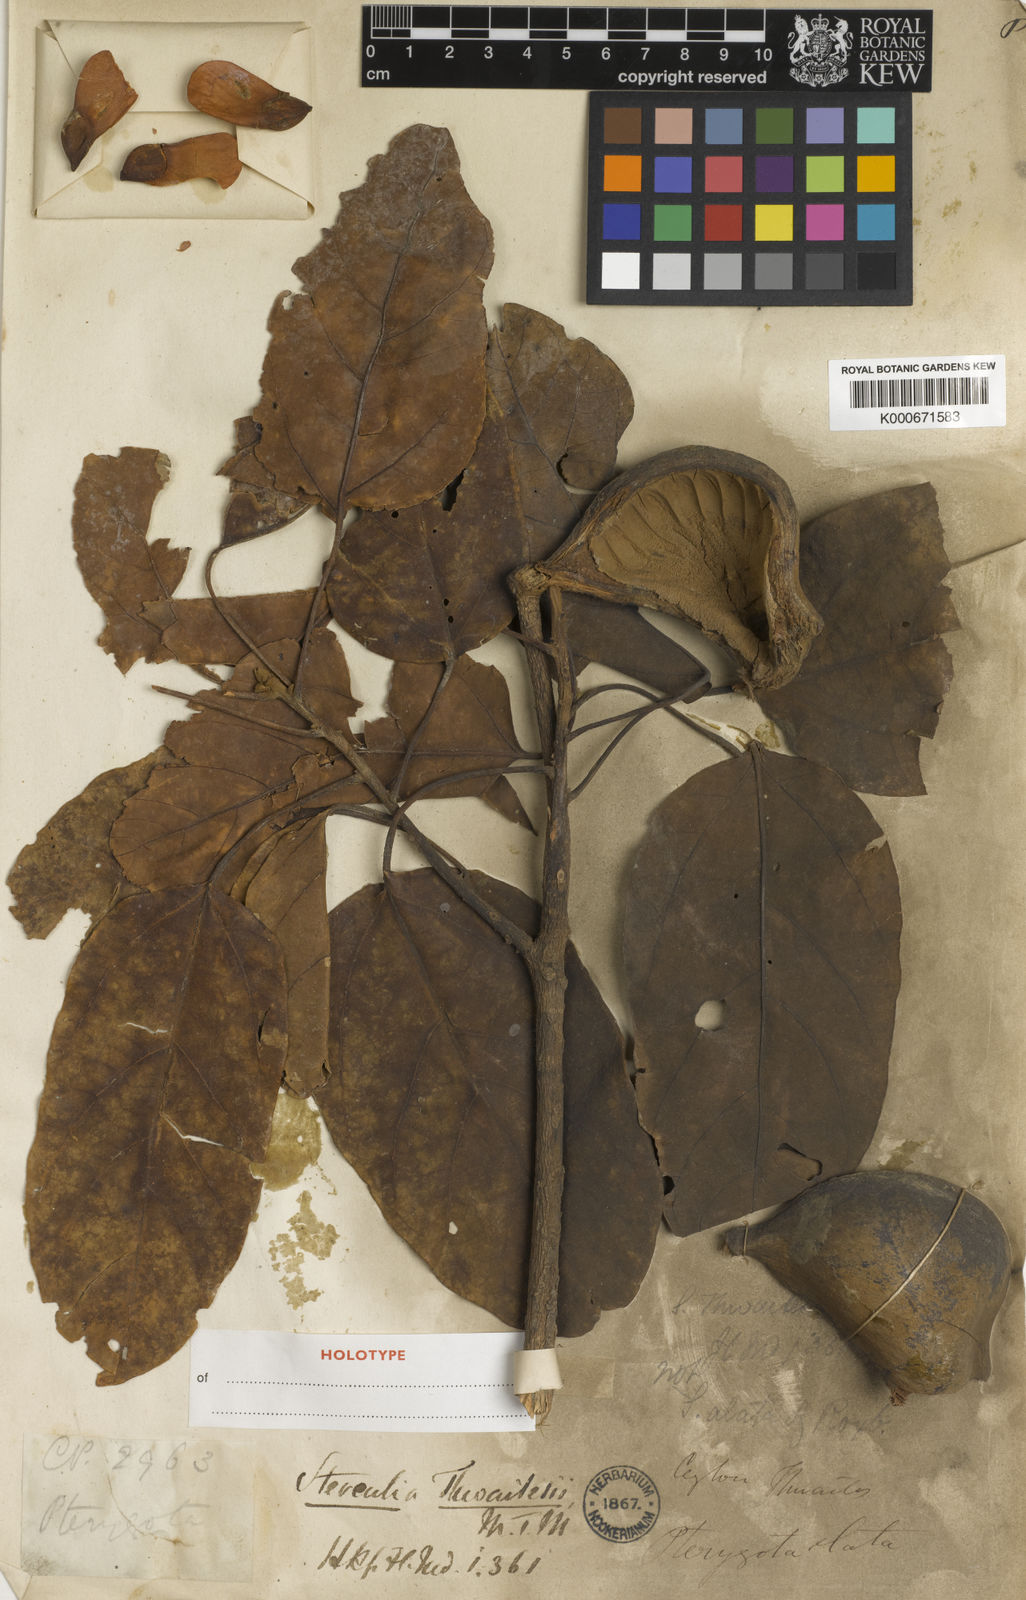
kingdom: Plantae
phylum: Tracheophyta
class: Magnoliopsida
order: Malvales
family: Malvaceae
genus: Pterygota
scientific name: Pterygota thwaitesii
